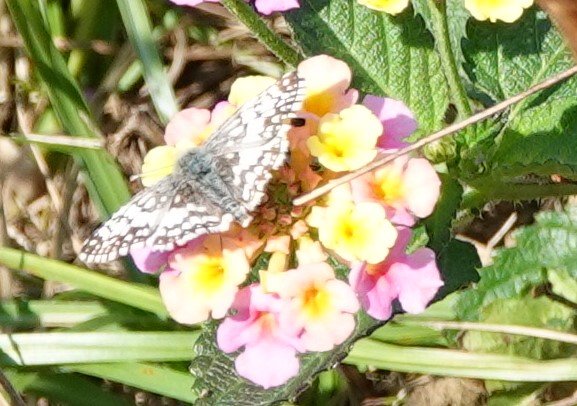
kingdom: Animalia
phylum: Arthropoda
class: Insecta
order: Lepidoptera
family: Hesperiidae
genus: Pyrgus
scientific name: Pyrgus communis
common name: White Checkered-Skipper
